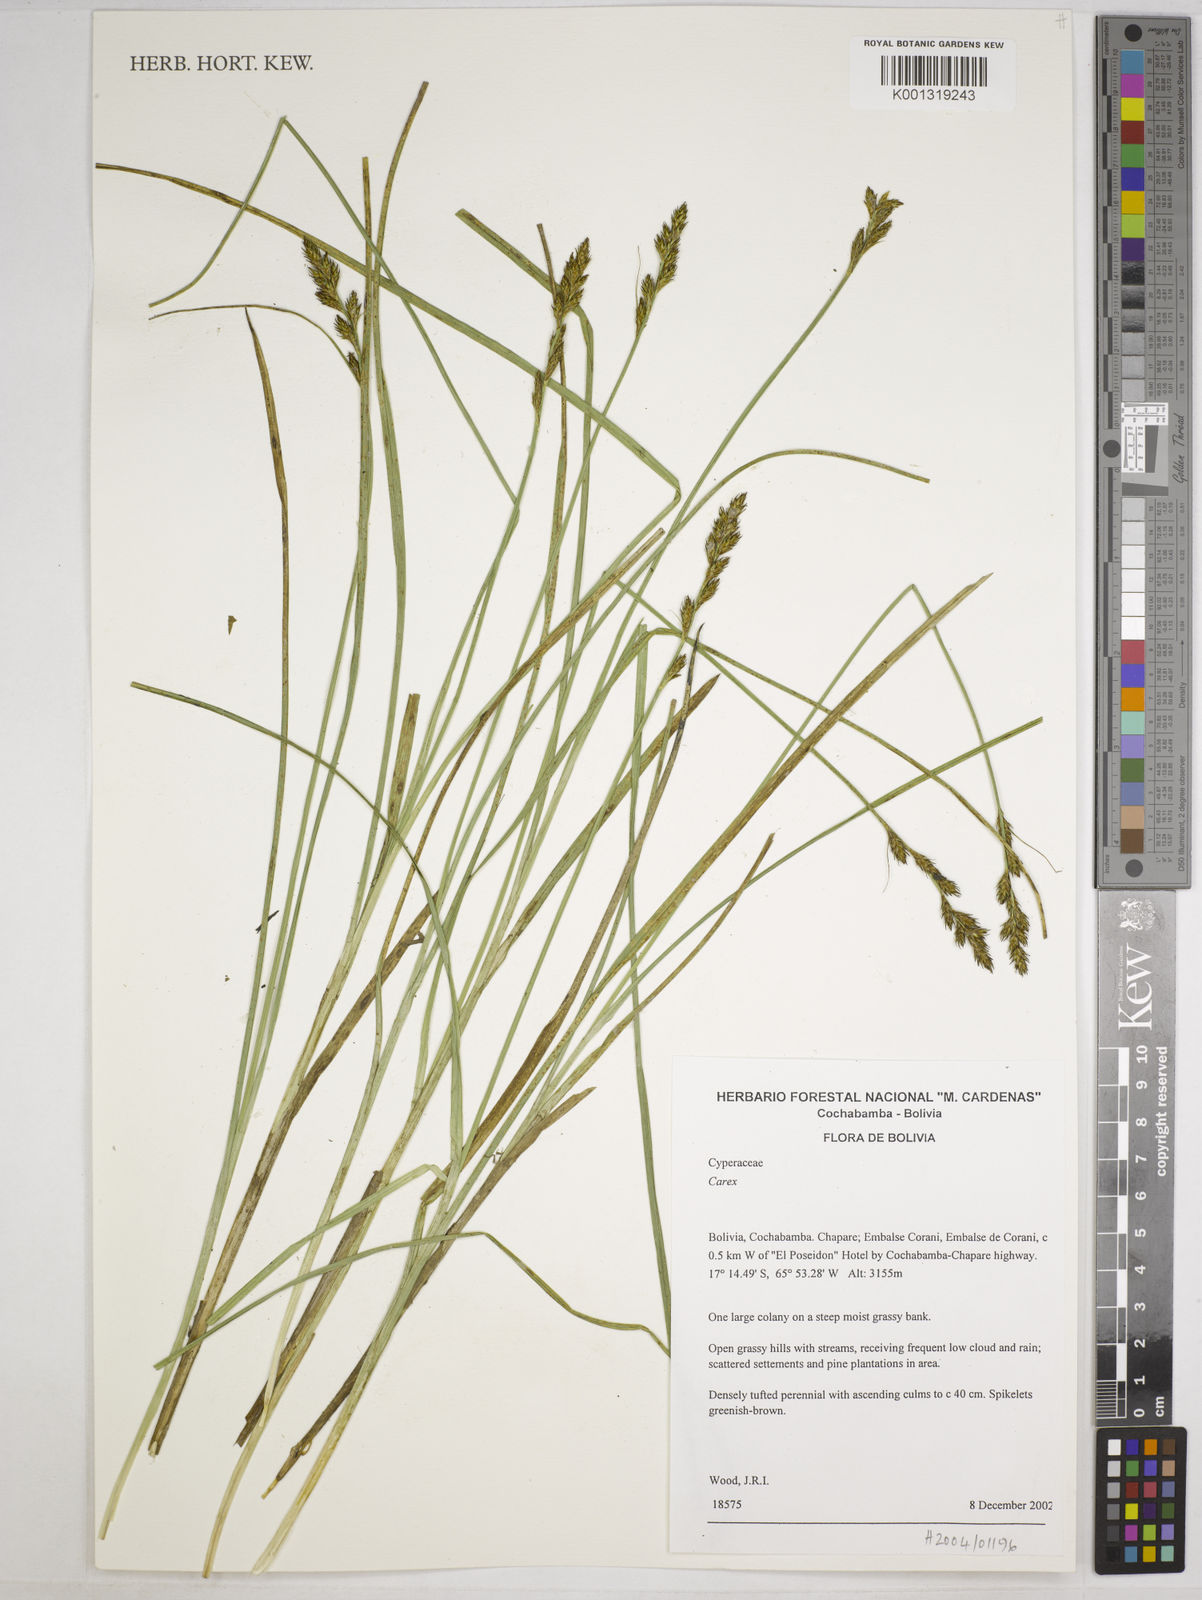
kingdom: Plantae
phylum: Tracheophyta
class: Liliopsida
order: Poales
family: Cyperaceae
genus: Carex
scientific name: Carex bonplandii
